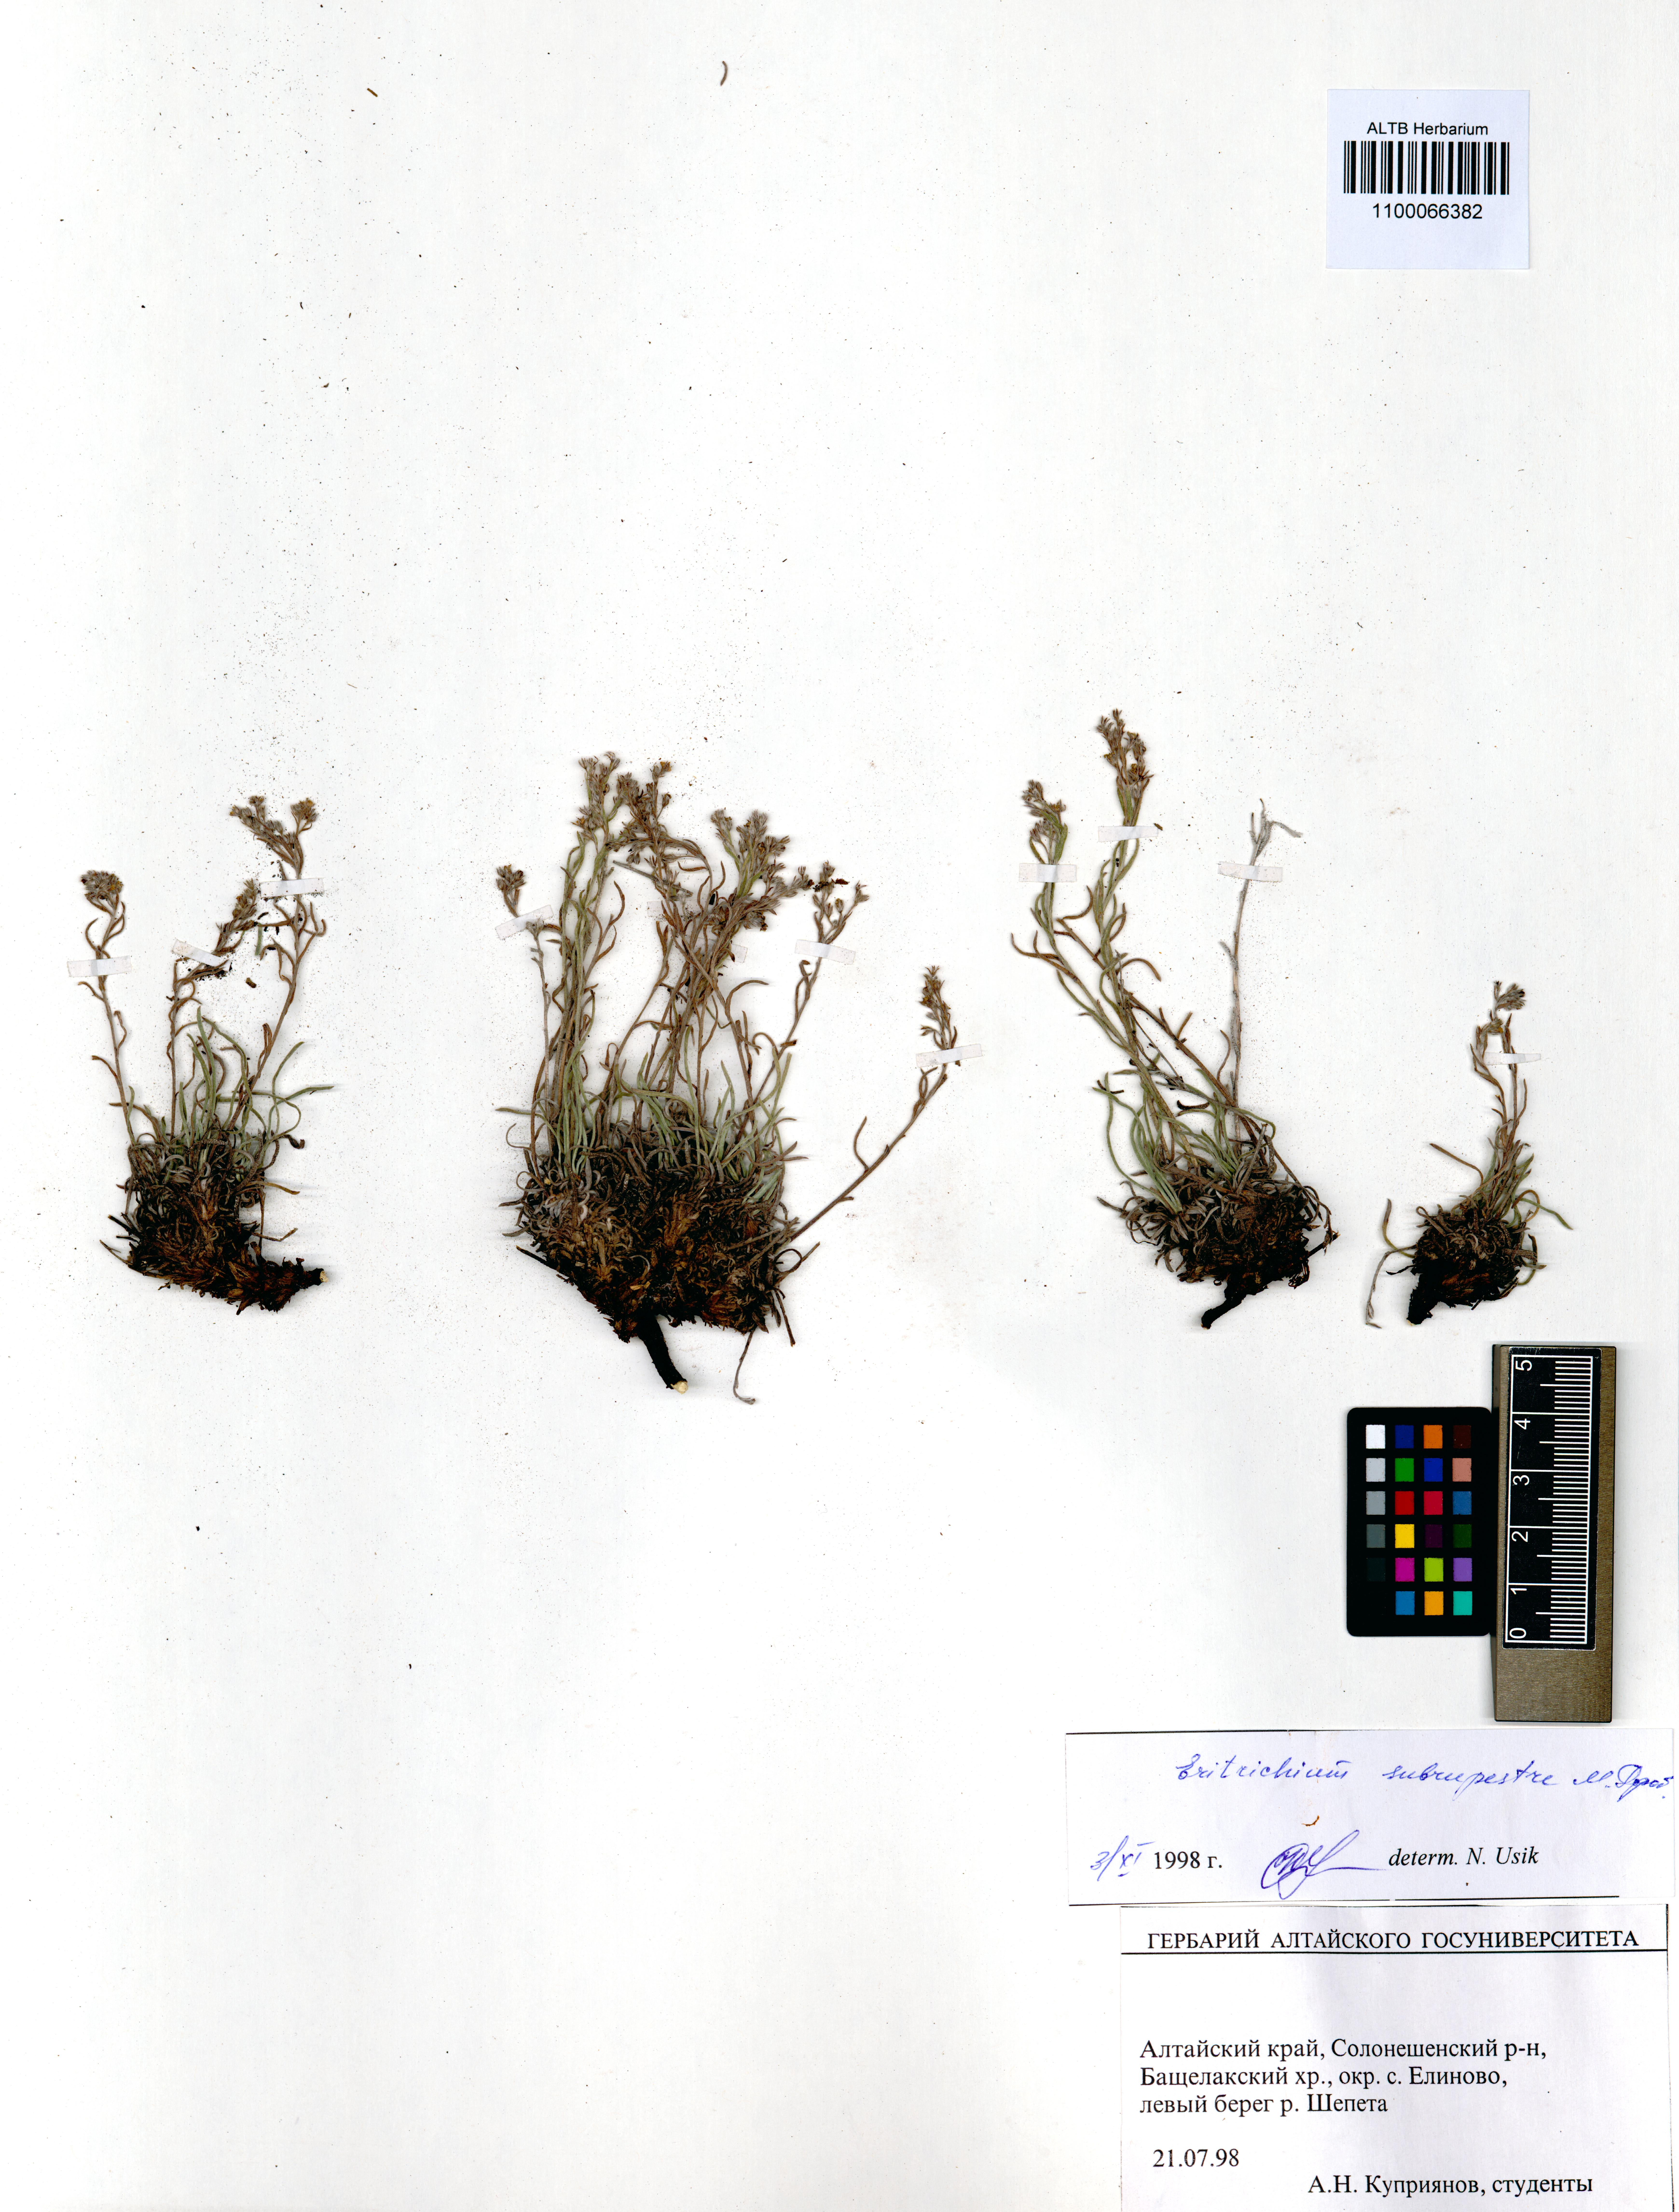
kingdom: Plantae
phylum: Tracheophyta
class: Magnoliopsida
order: Boraginales
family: Boraginaceae
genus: Eritrichium
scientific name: Eritrichium pauciflorum
